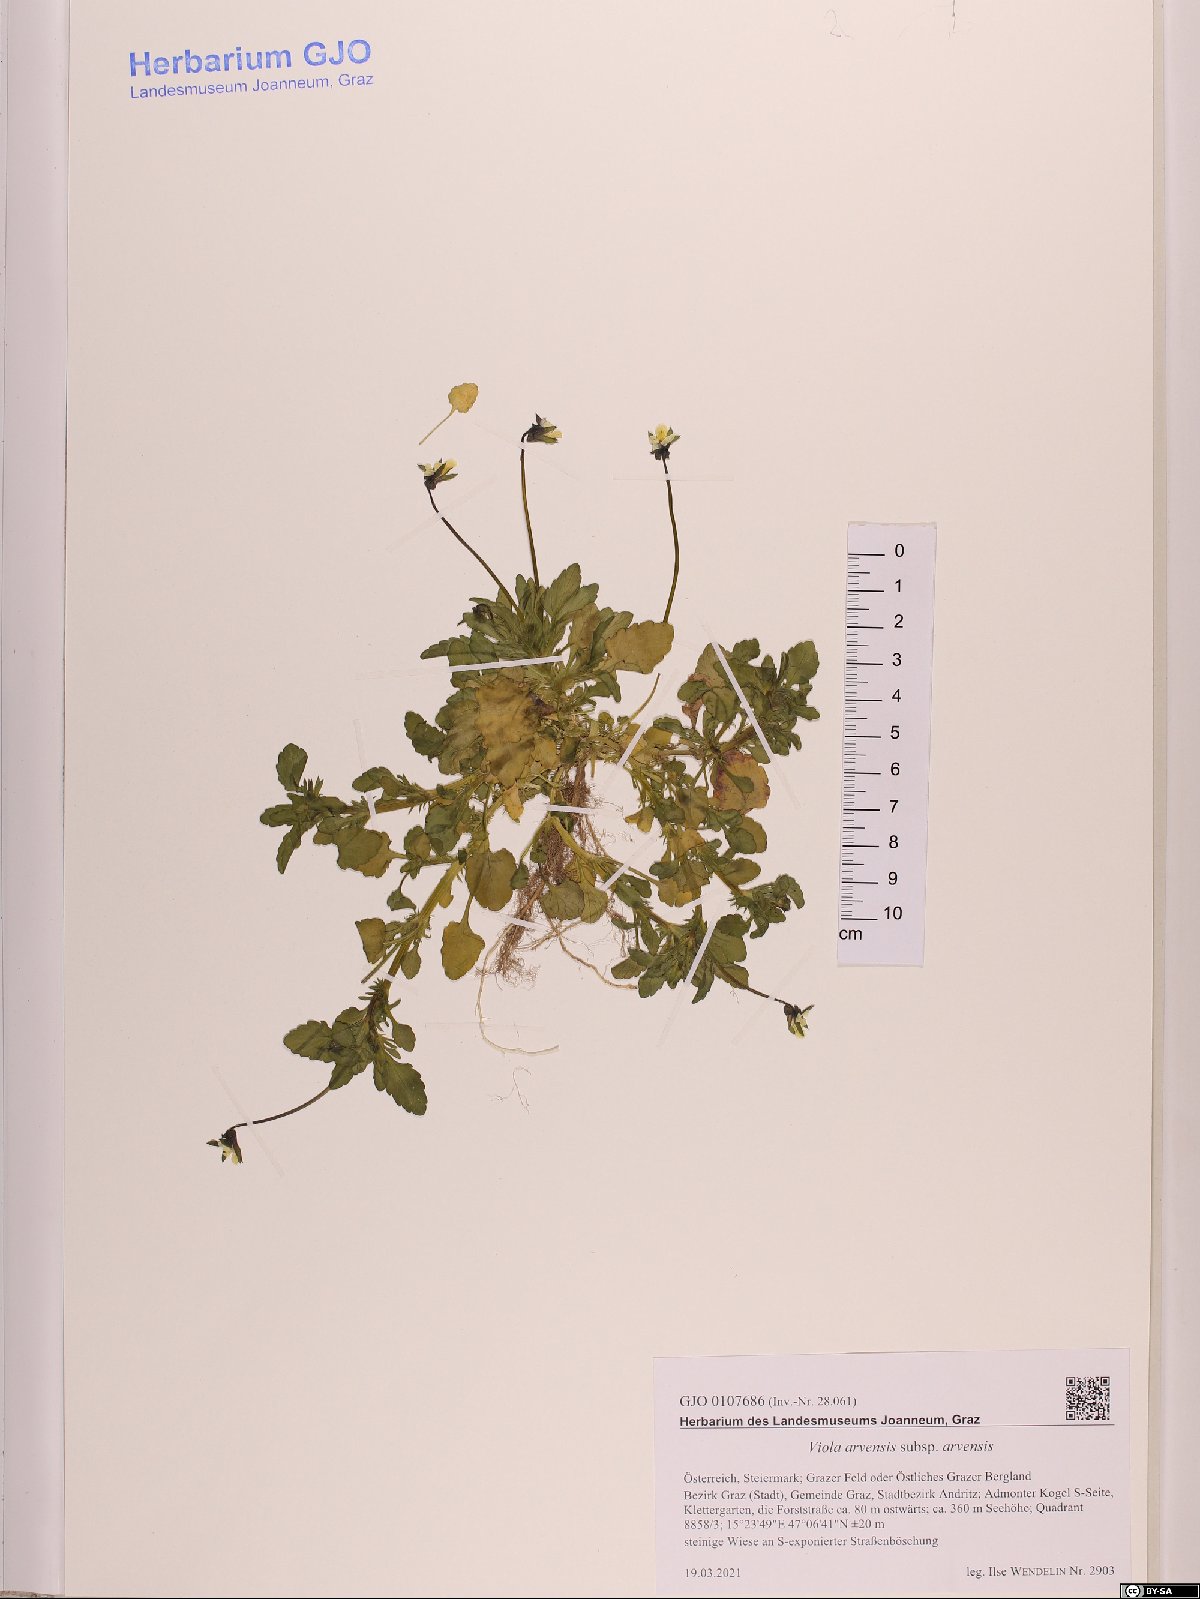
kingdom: Plantae
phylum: Tracheophyta
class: Magnoliopsida
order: Malpighiales
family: Violaceae
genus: Viola
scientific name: Viola arvensis
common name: Field pansy
